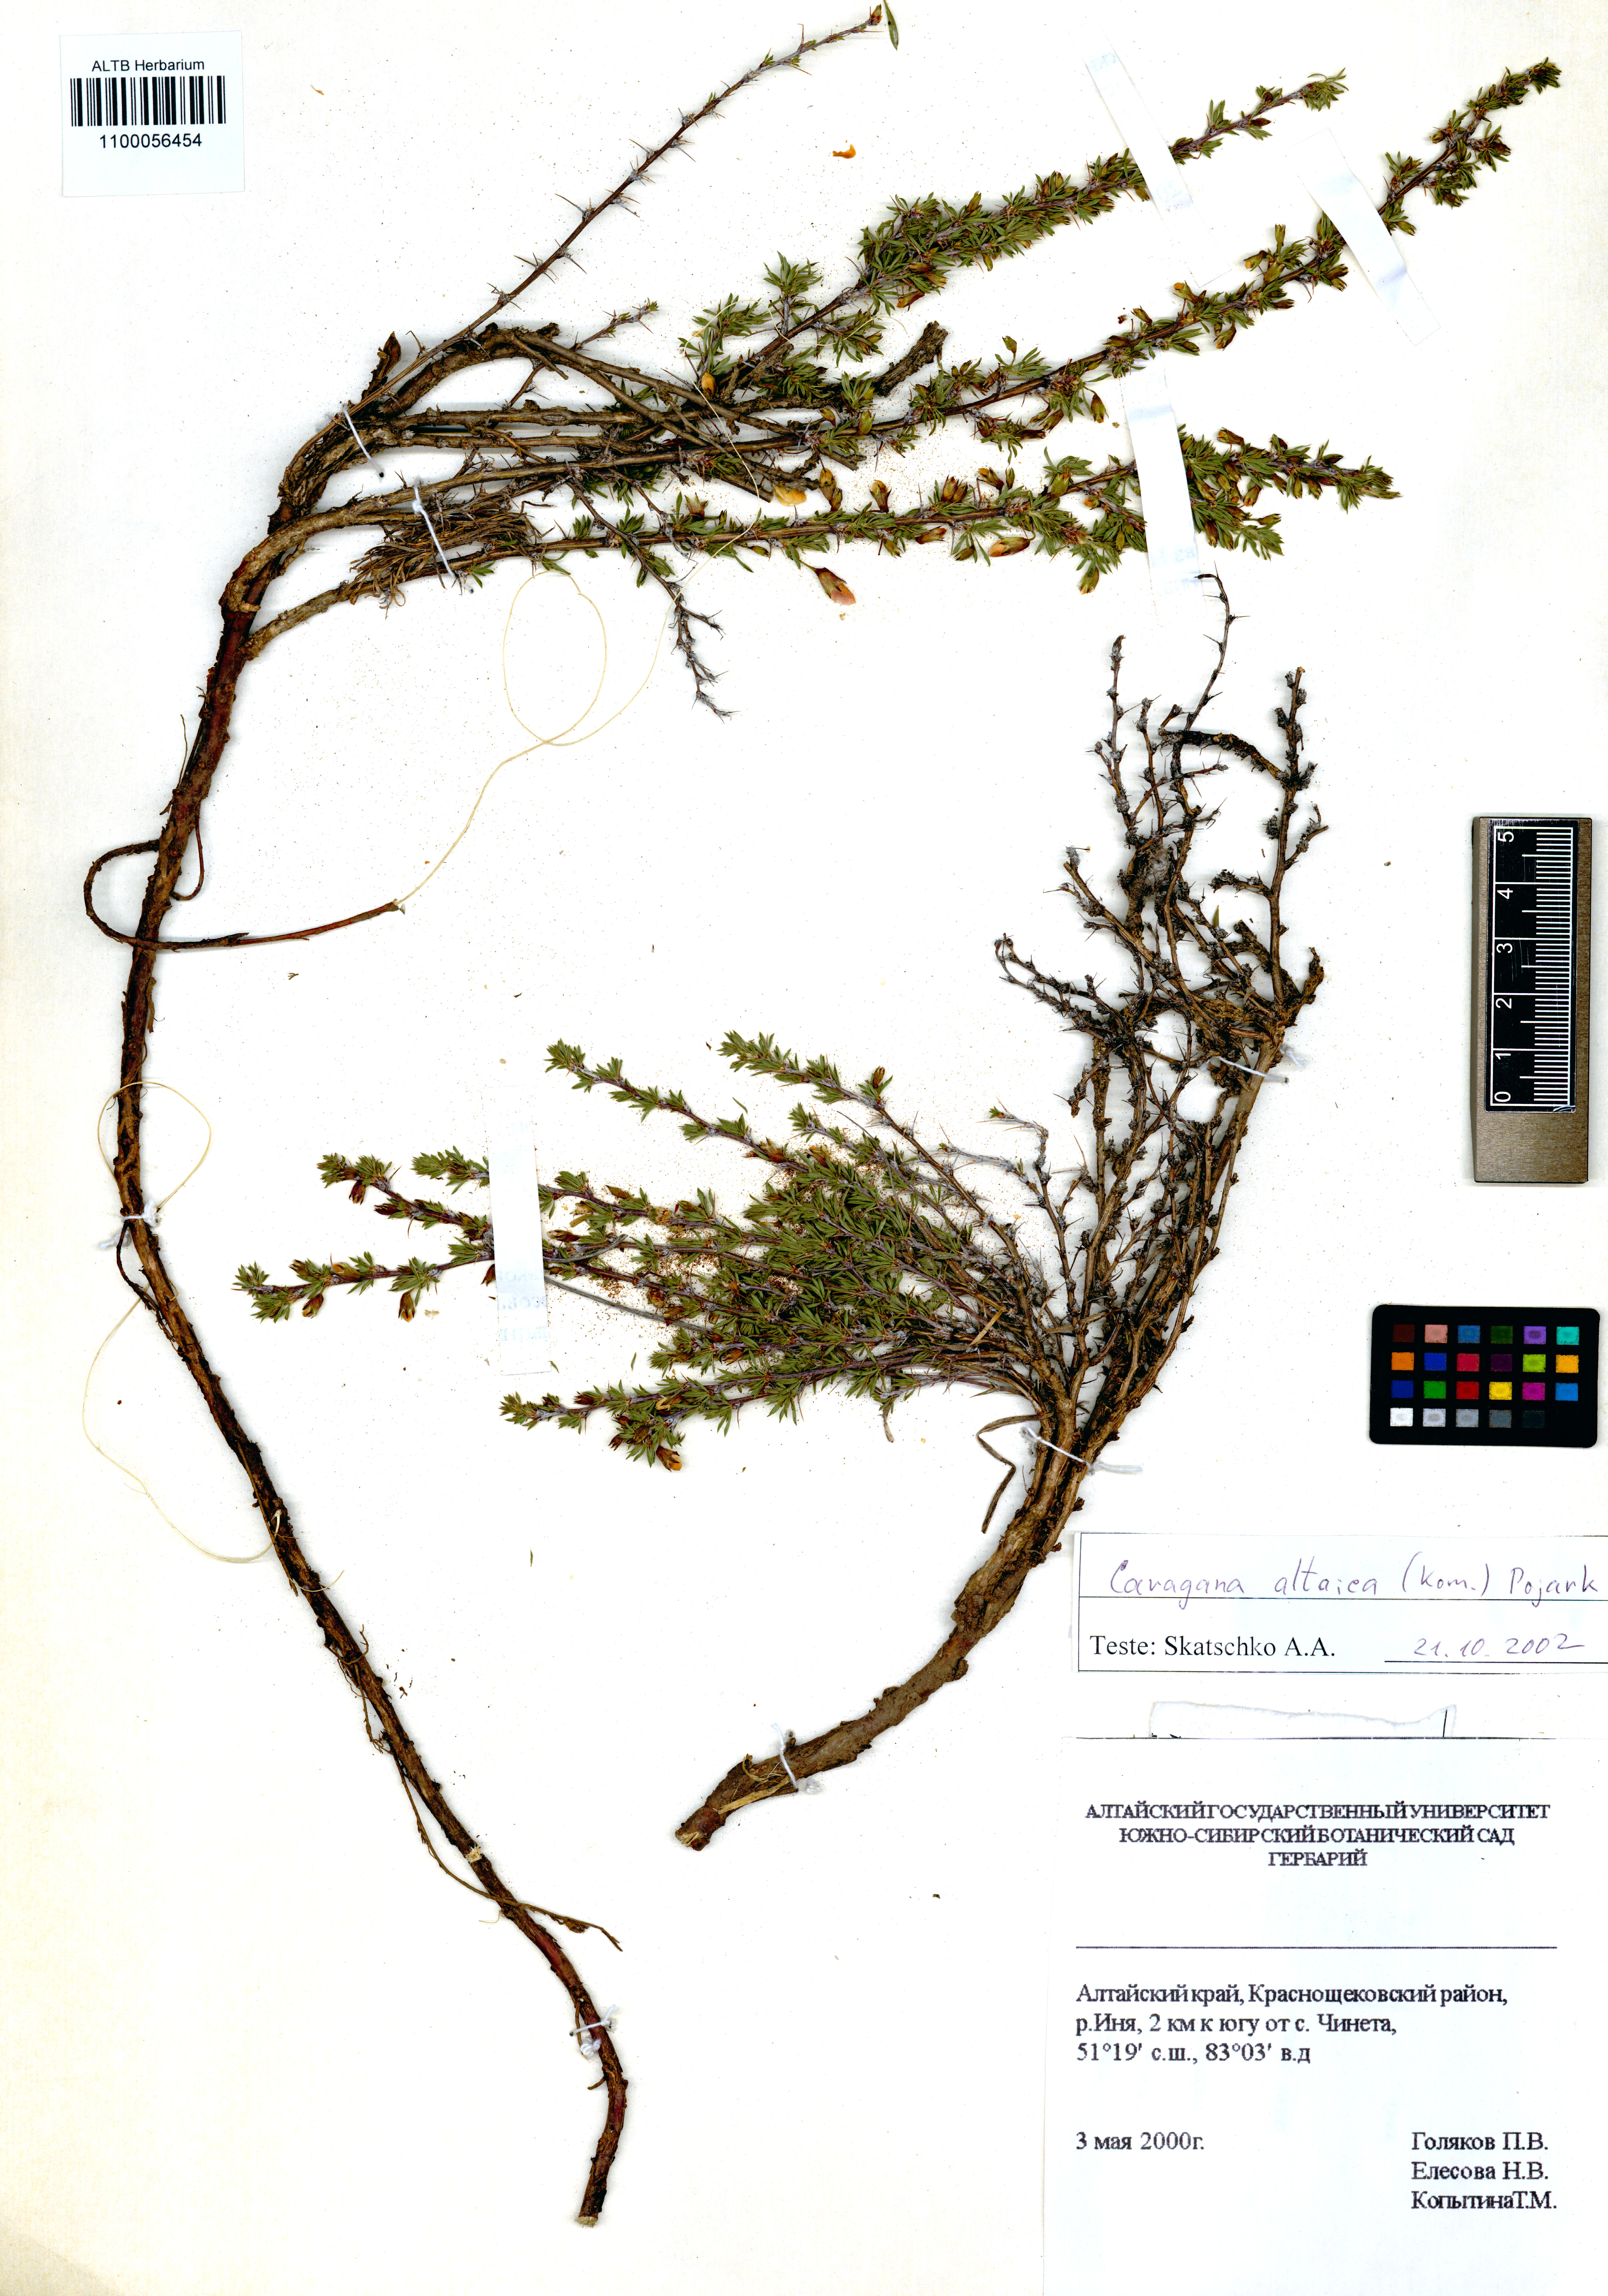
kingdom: Plantae
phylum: Tracheophyta
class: Magnoliopsida
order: Fabales
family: Fabaceae
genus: Caragana
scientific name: Caragana pygmaea
